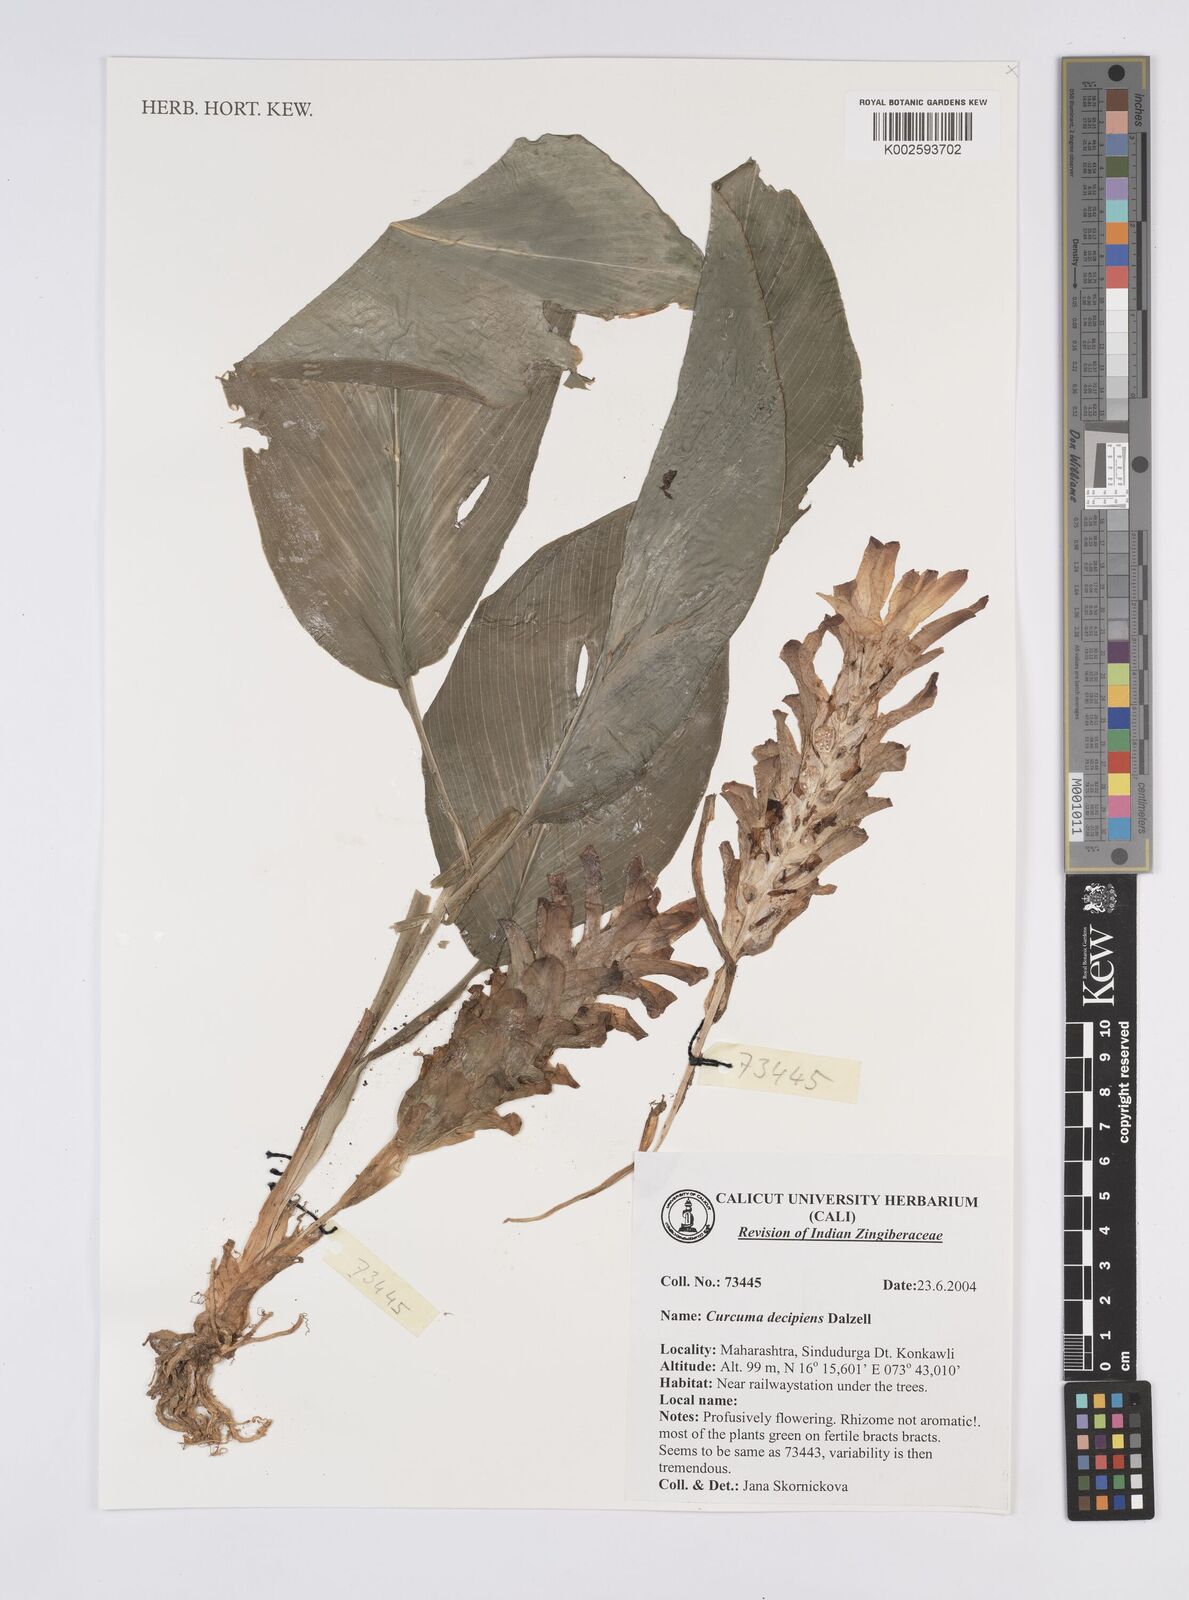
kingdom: Plantae
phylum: Tracheophyta
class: Liliopsida
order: Zingiberales
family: Zingiberaceae
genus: Curcuma
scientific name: Curcuma decipiens
